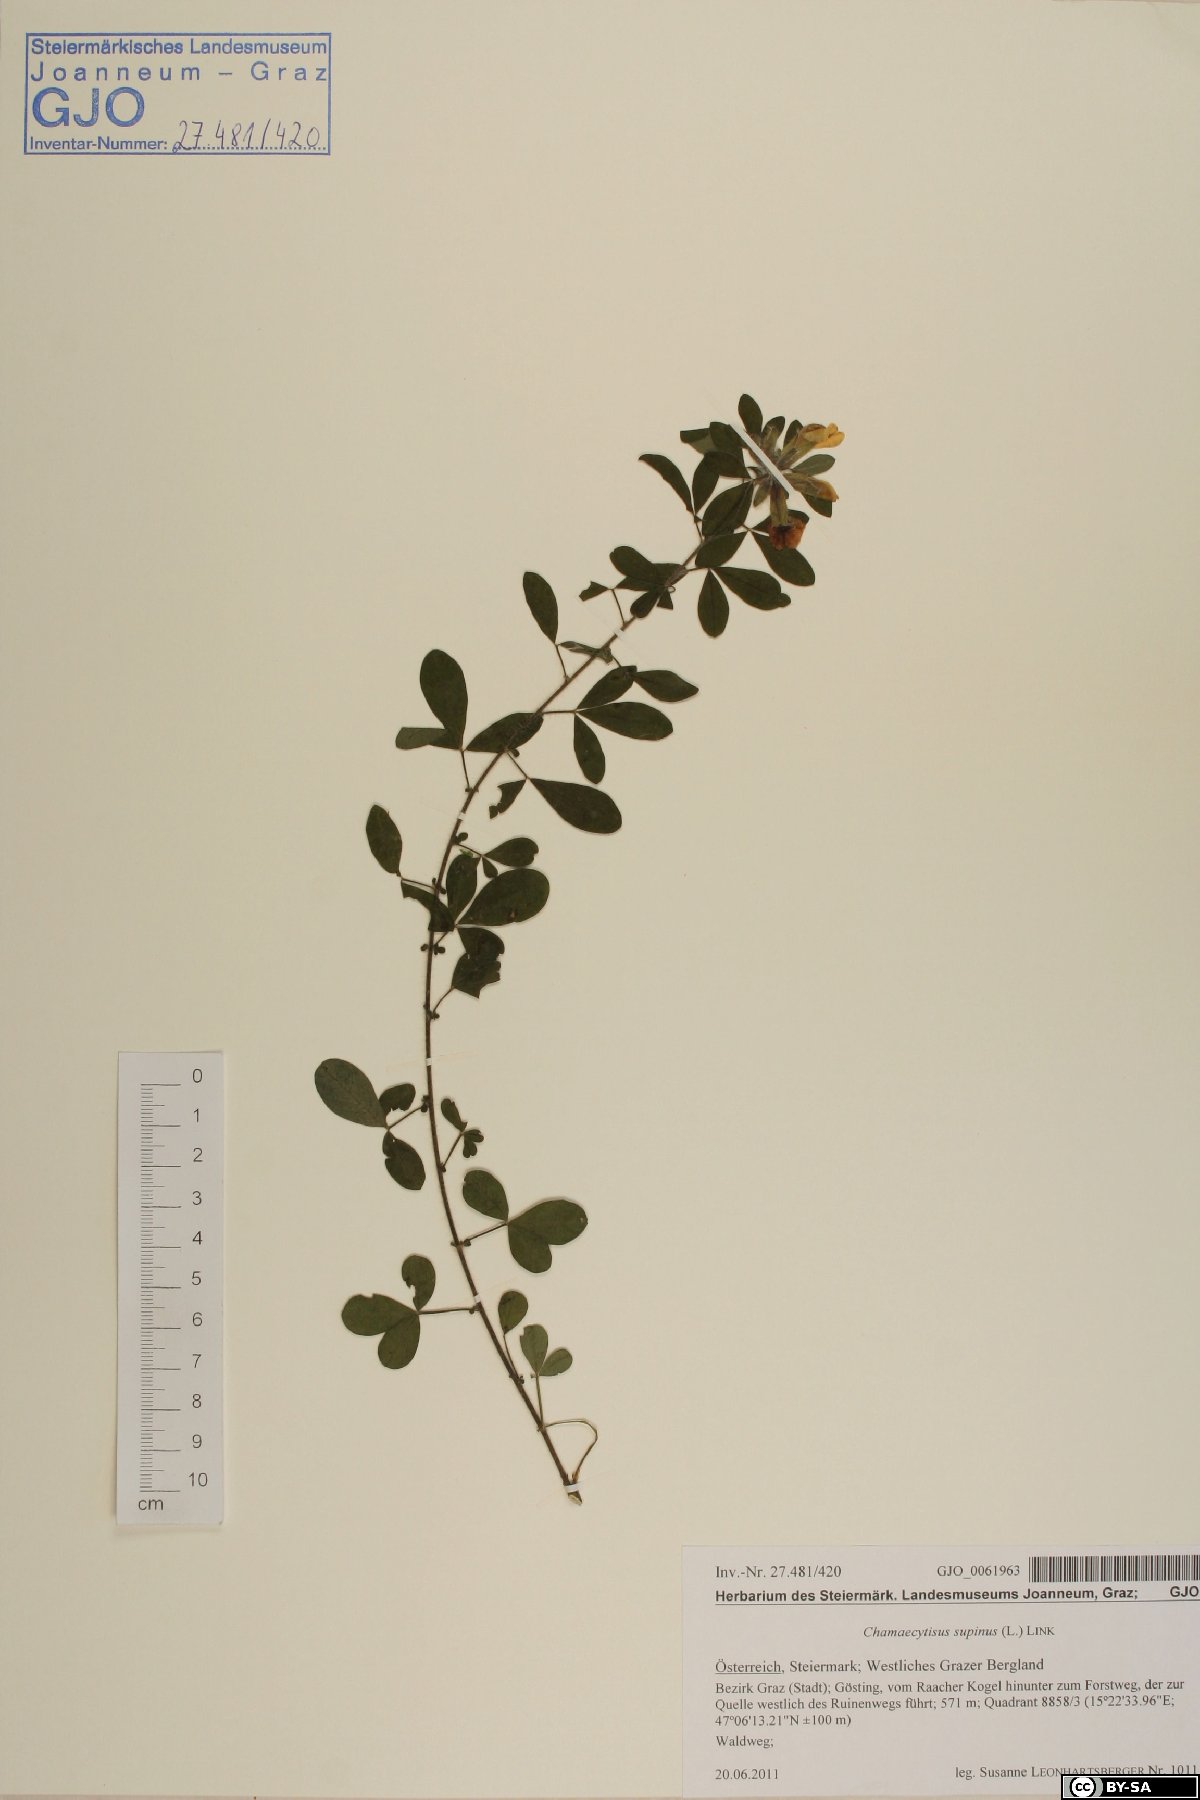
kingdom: Plantae
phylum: Tracheophyta
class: Magnoliopsida
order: Fabales
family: Fabaceae
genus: Chamaecytisus
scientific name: Chamaecytisus supinus
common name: Clustered broom
